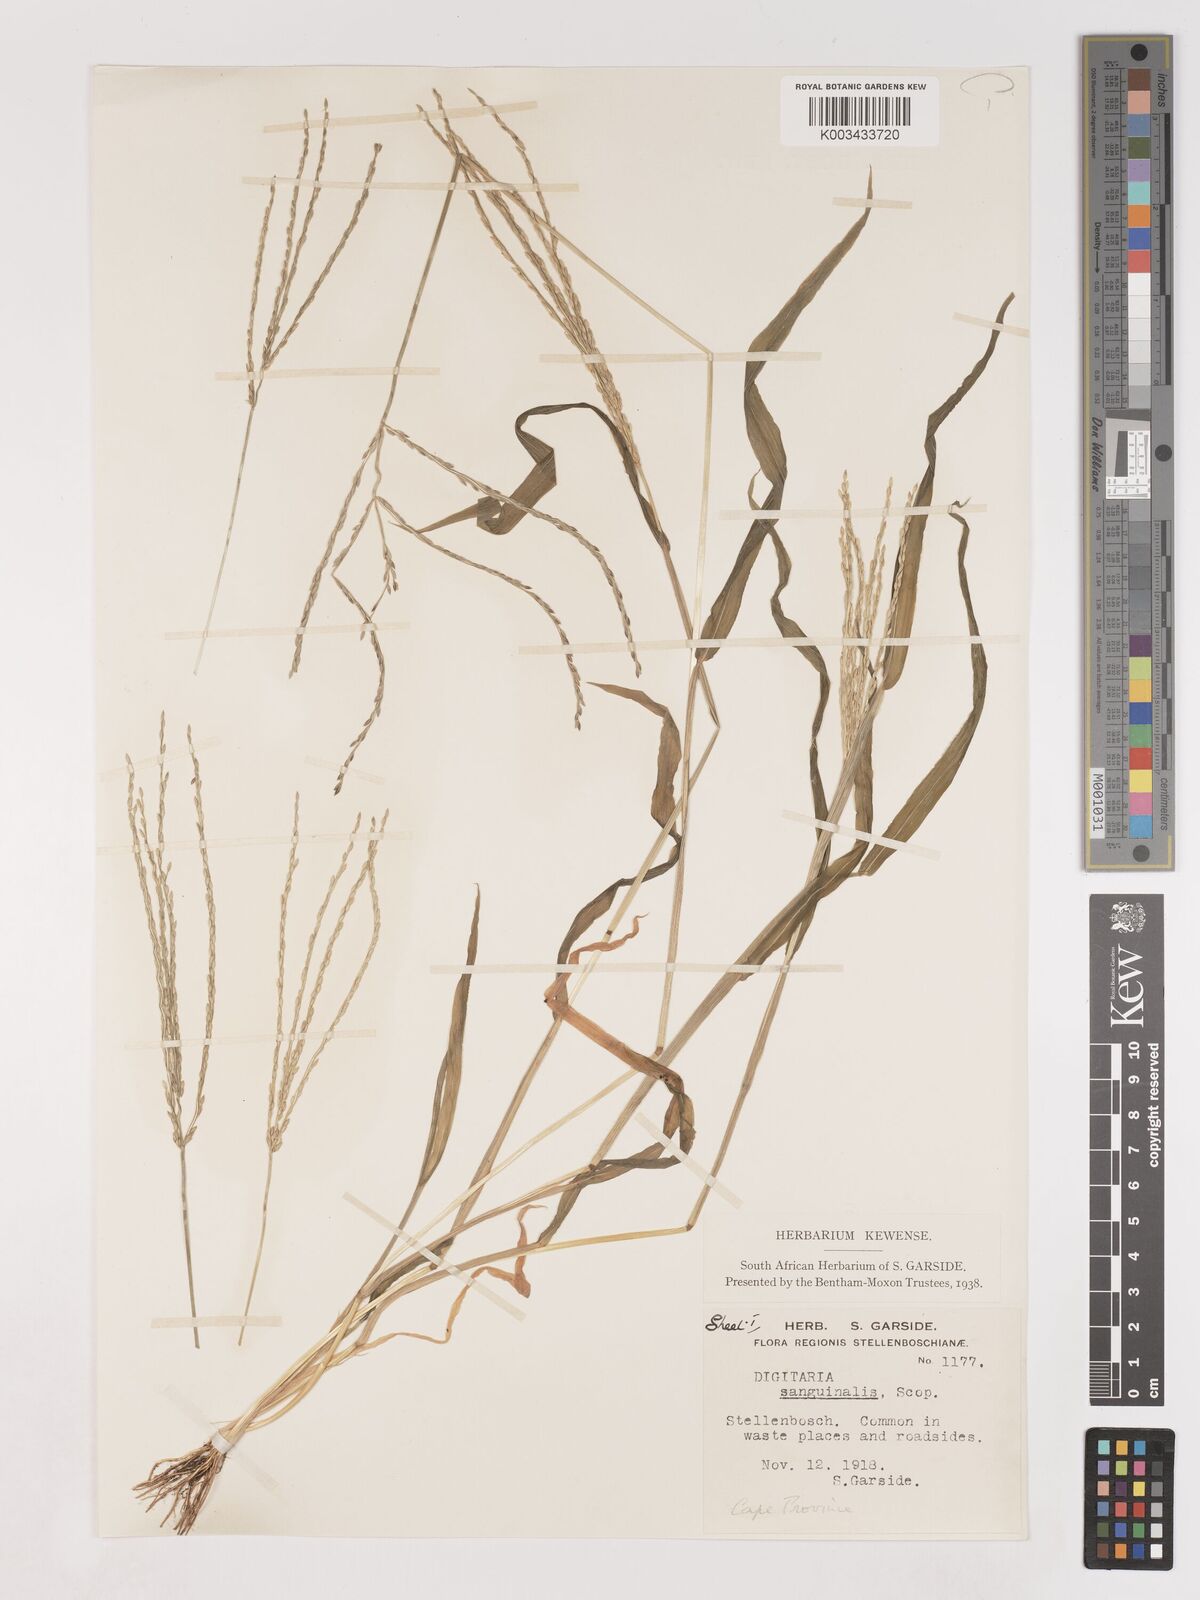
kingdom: Plantae
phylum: Tracheophyta
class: Liliopsida
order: Poales
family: Poaceae
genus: Digitaria
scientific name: Digitaria sanguinalis
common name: Hairy crabgrass
